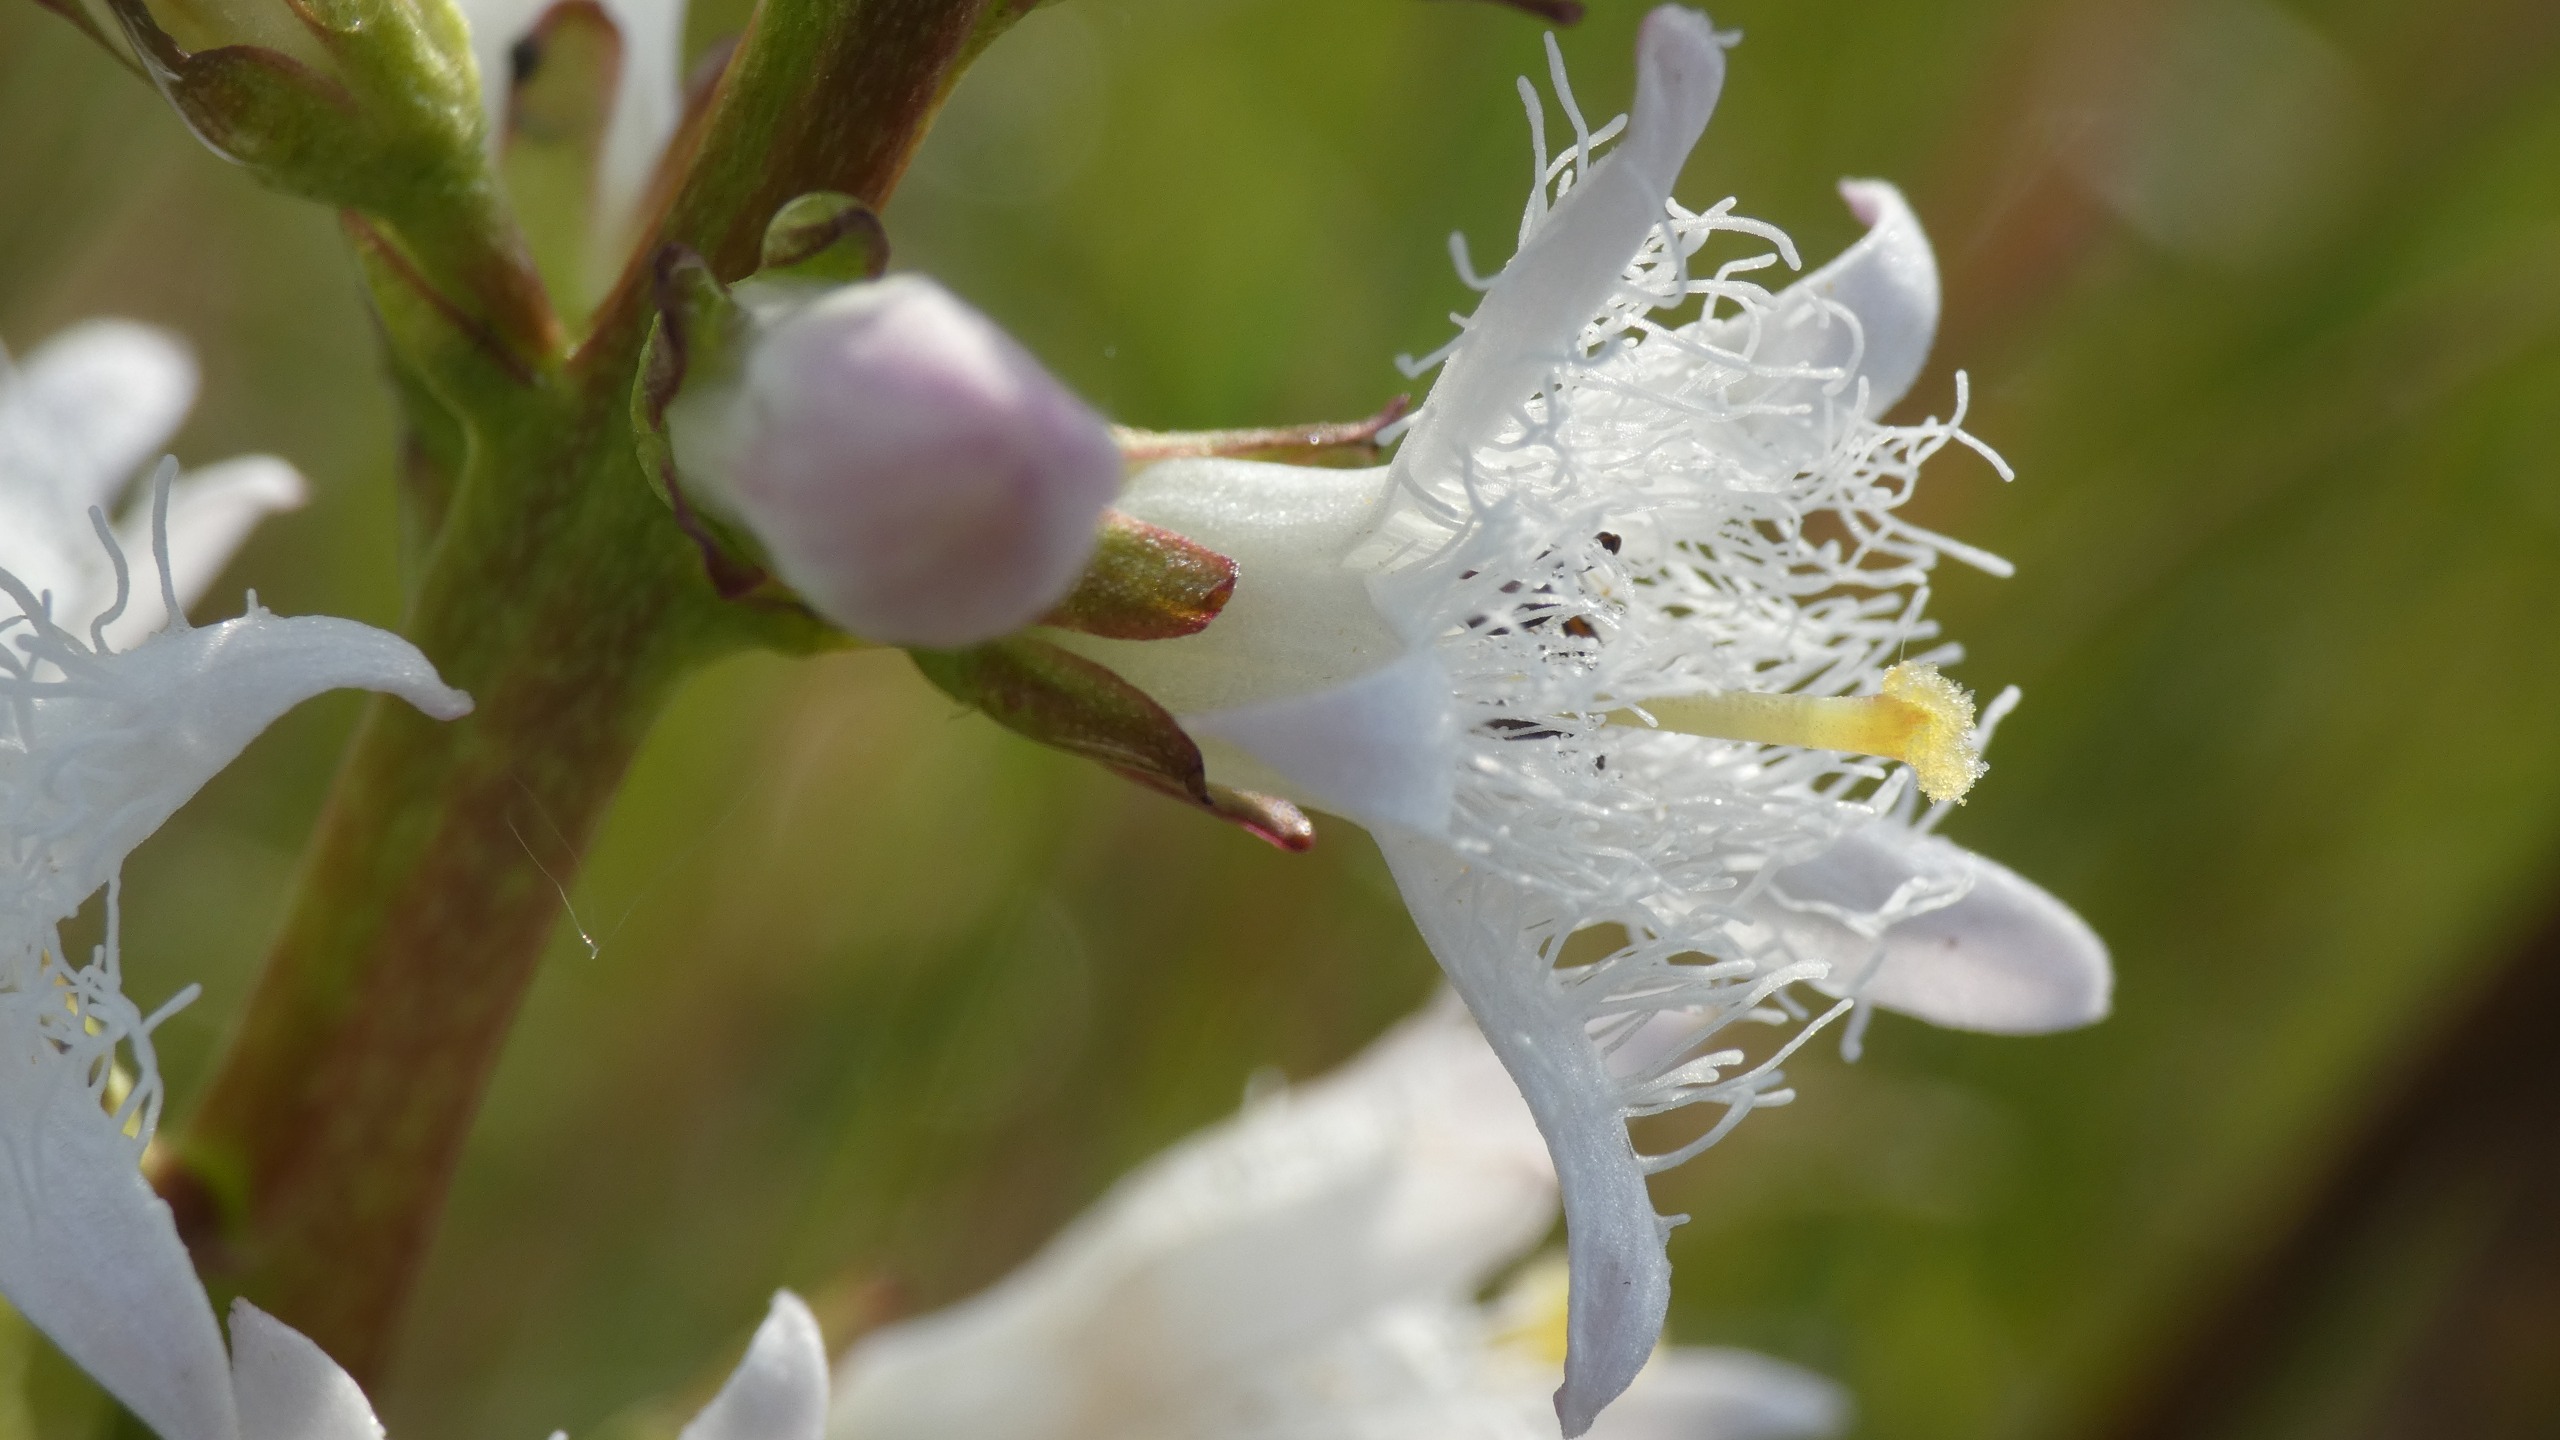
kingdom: Plantae
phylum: Tracheophyta
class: Magnoliopsida
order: Asterales
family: Menyanthaceae
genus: Menyanthes
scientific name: Menyanthes trifoliata
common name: Bukkeblad
